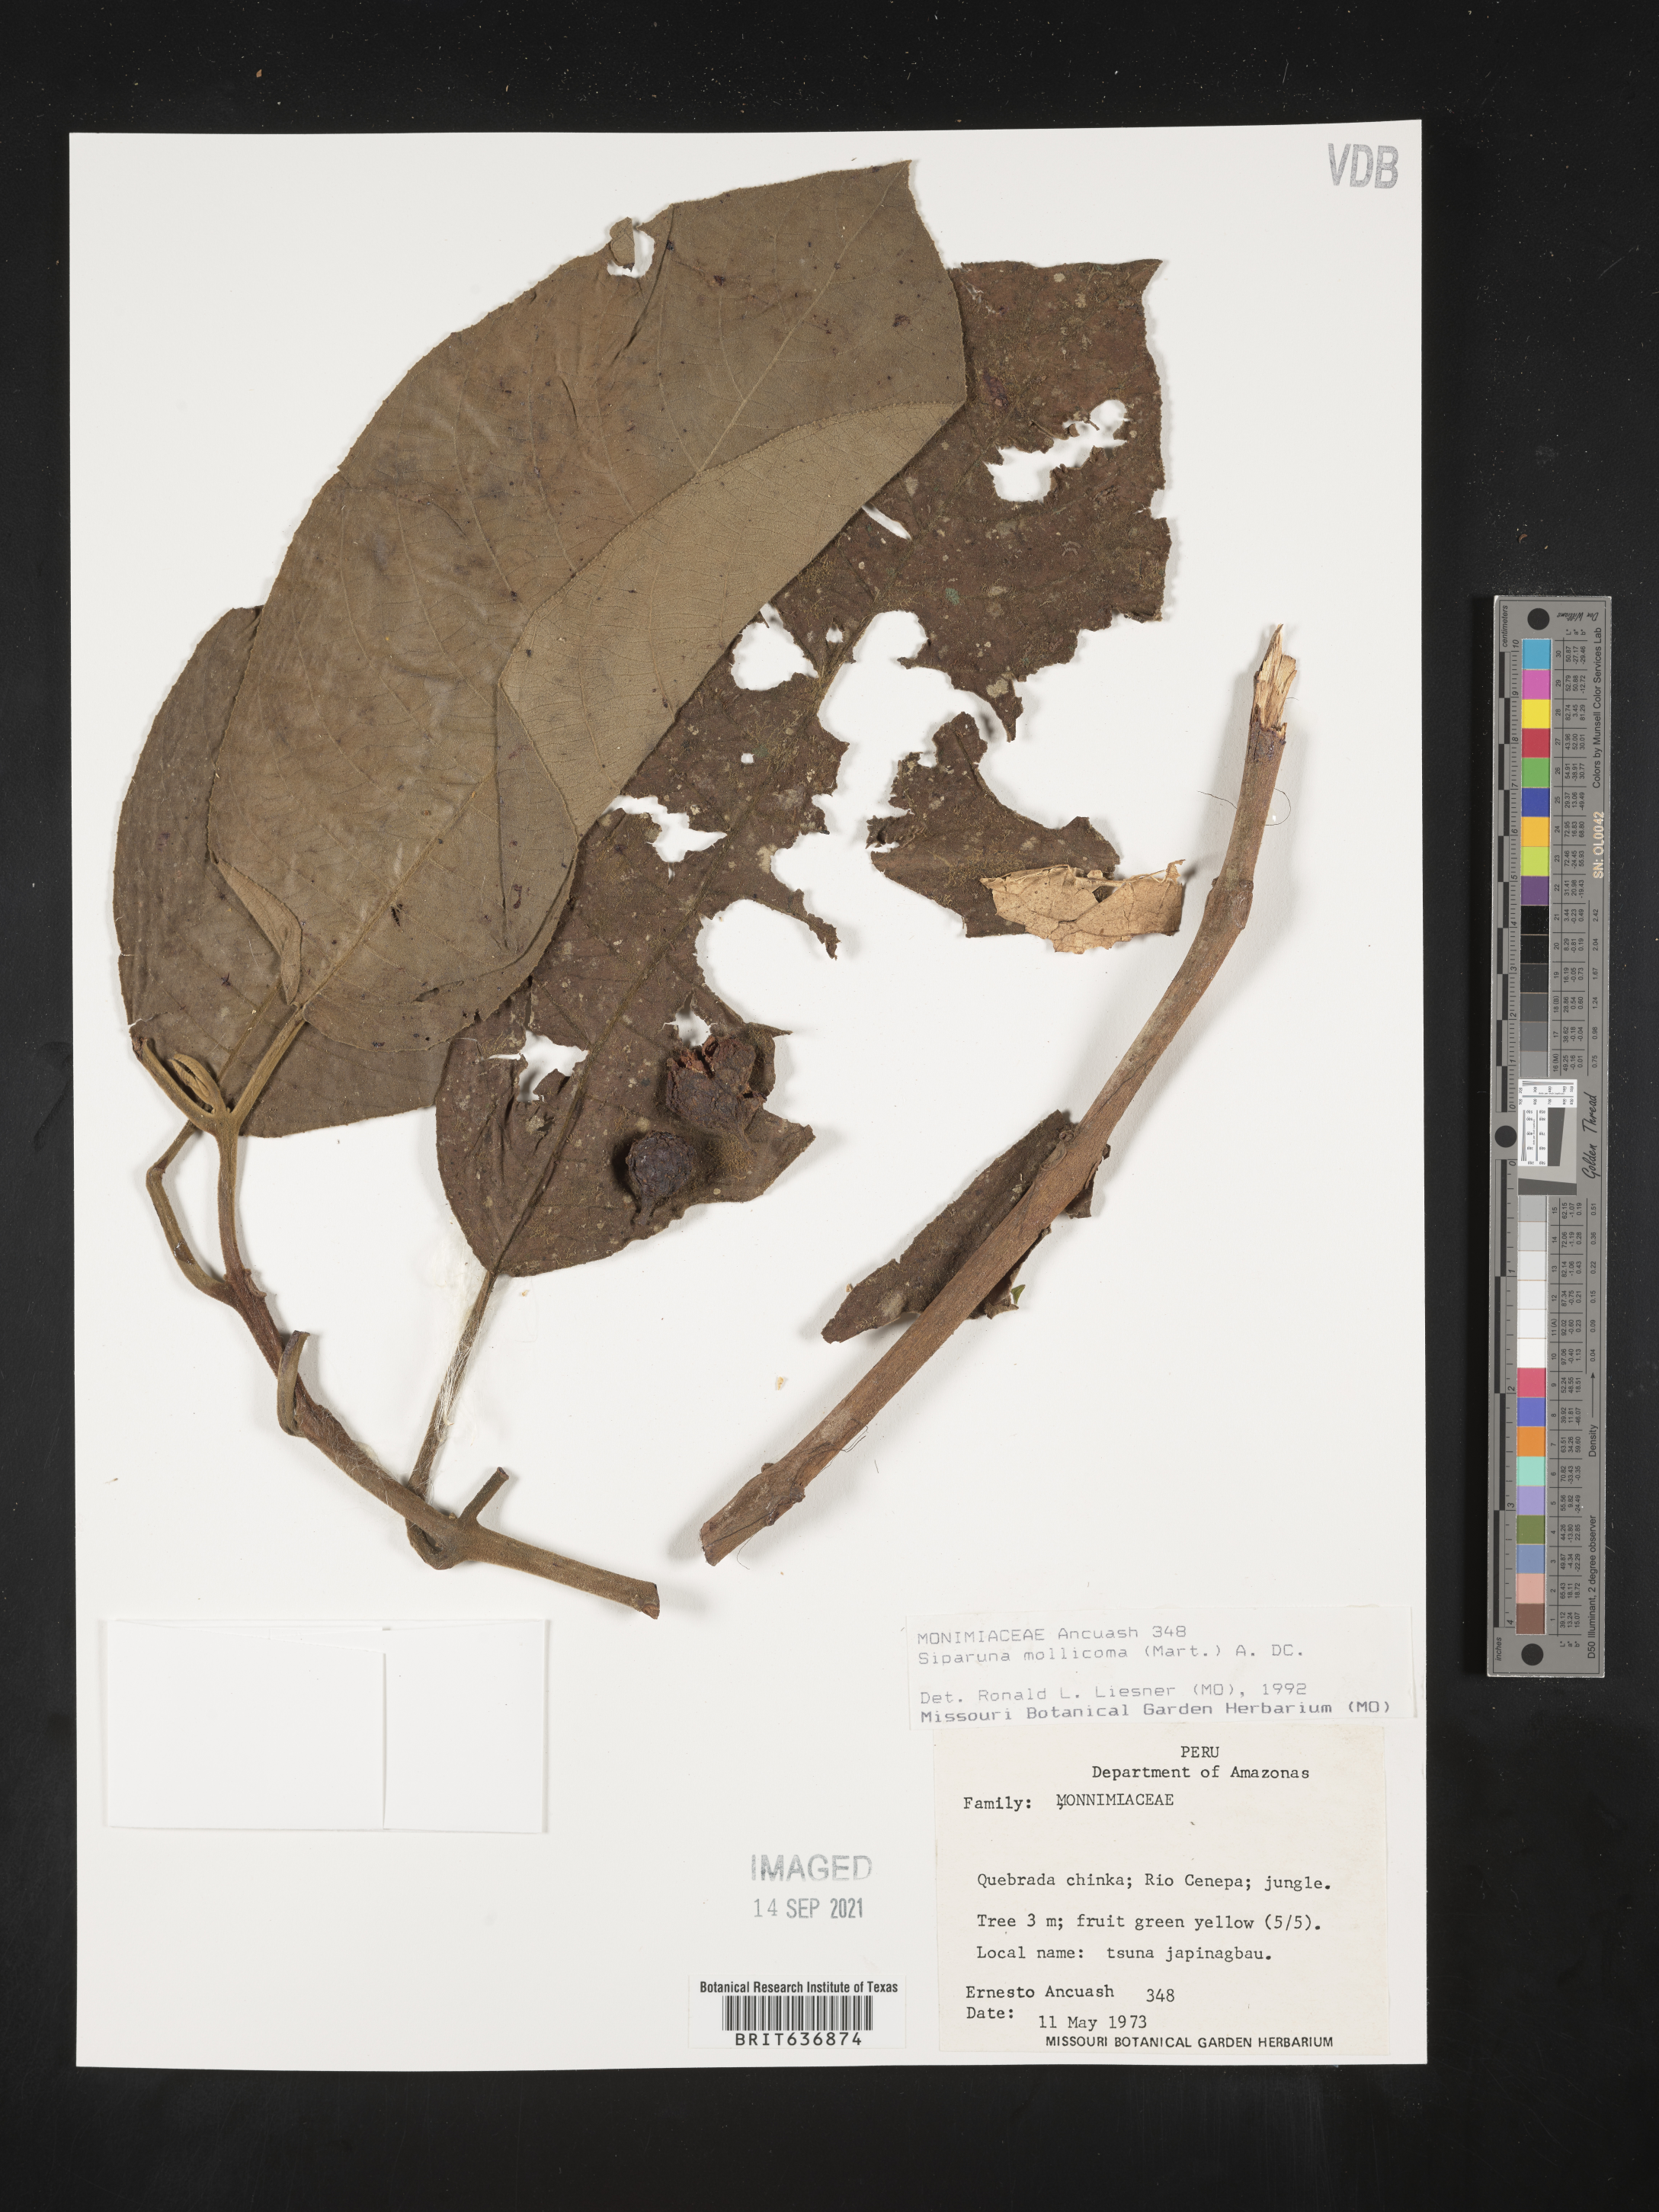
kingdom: Plantae
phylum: Tracheophyta
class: Magnoliopsida
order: Laurales
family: Siparunaceae
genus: Siparuna
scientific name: Siparuna
